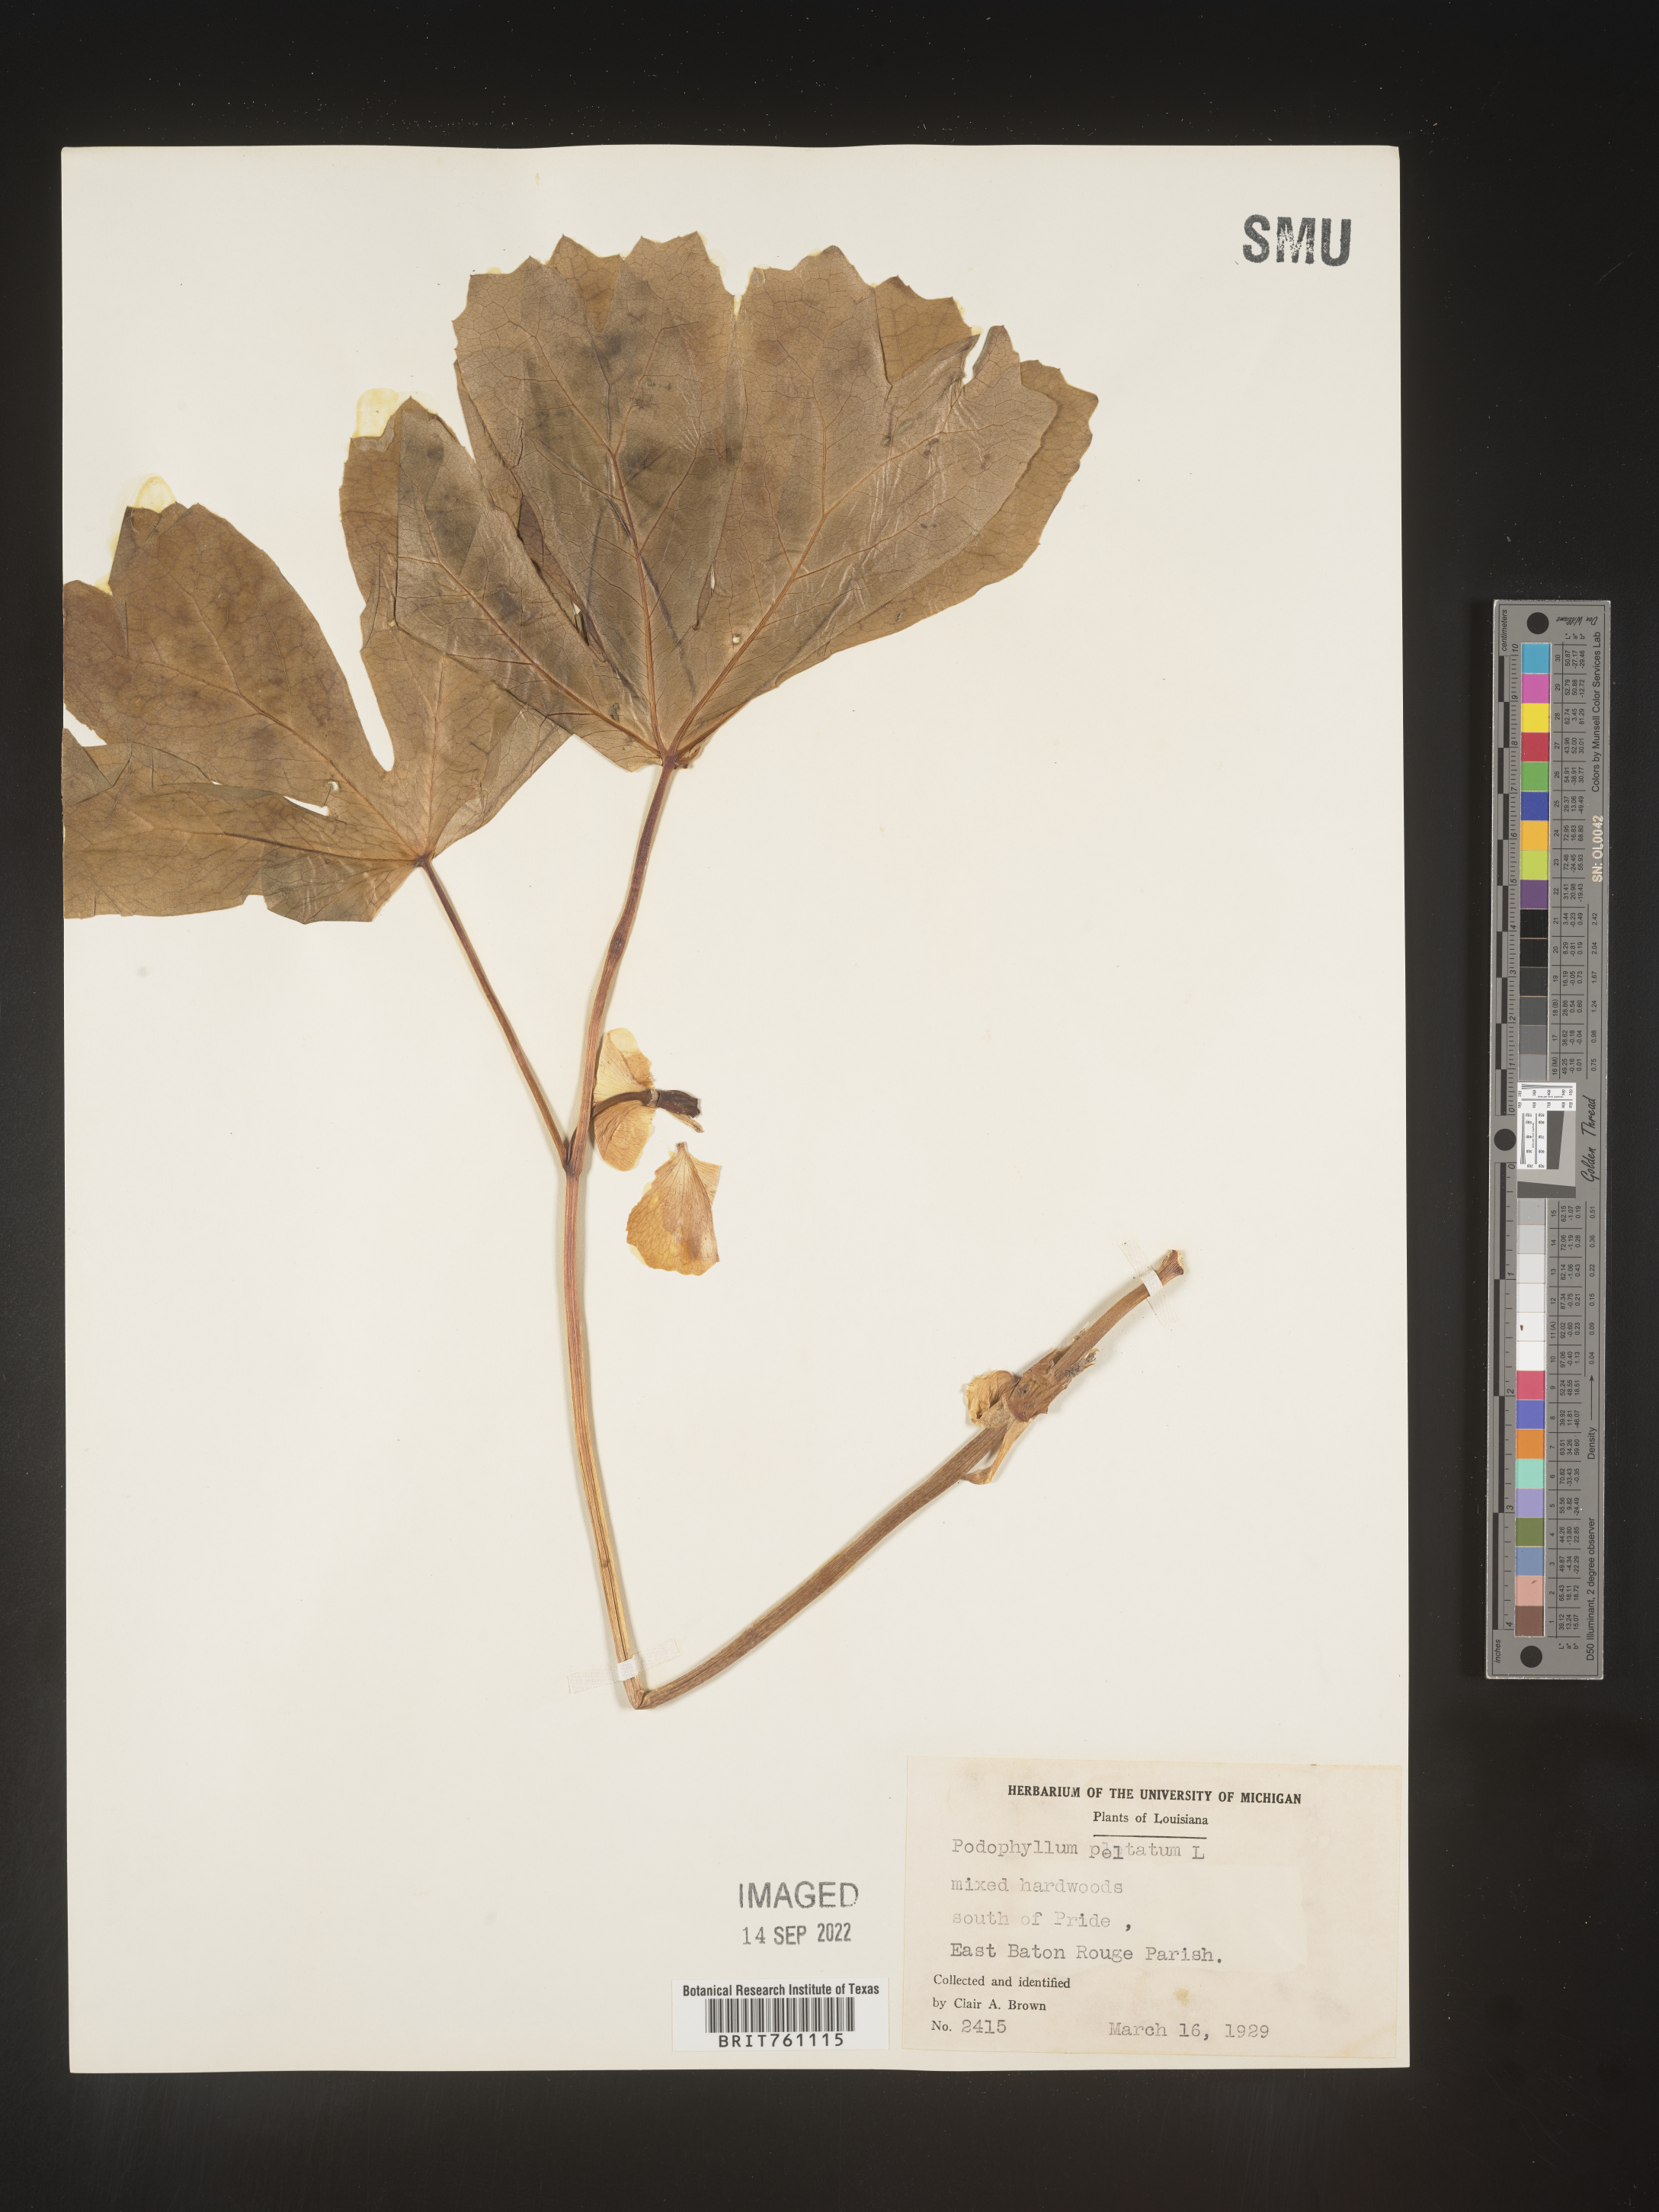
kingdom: Plantae
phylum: Tracheophyta
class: Magnoliopsida
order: Ranunculales
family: Berberidaceae
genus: Podophyllum
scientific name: Podophyllum peltatum
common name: Wild mandrake
